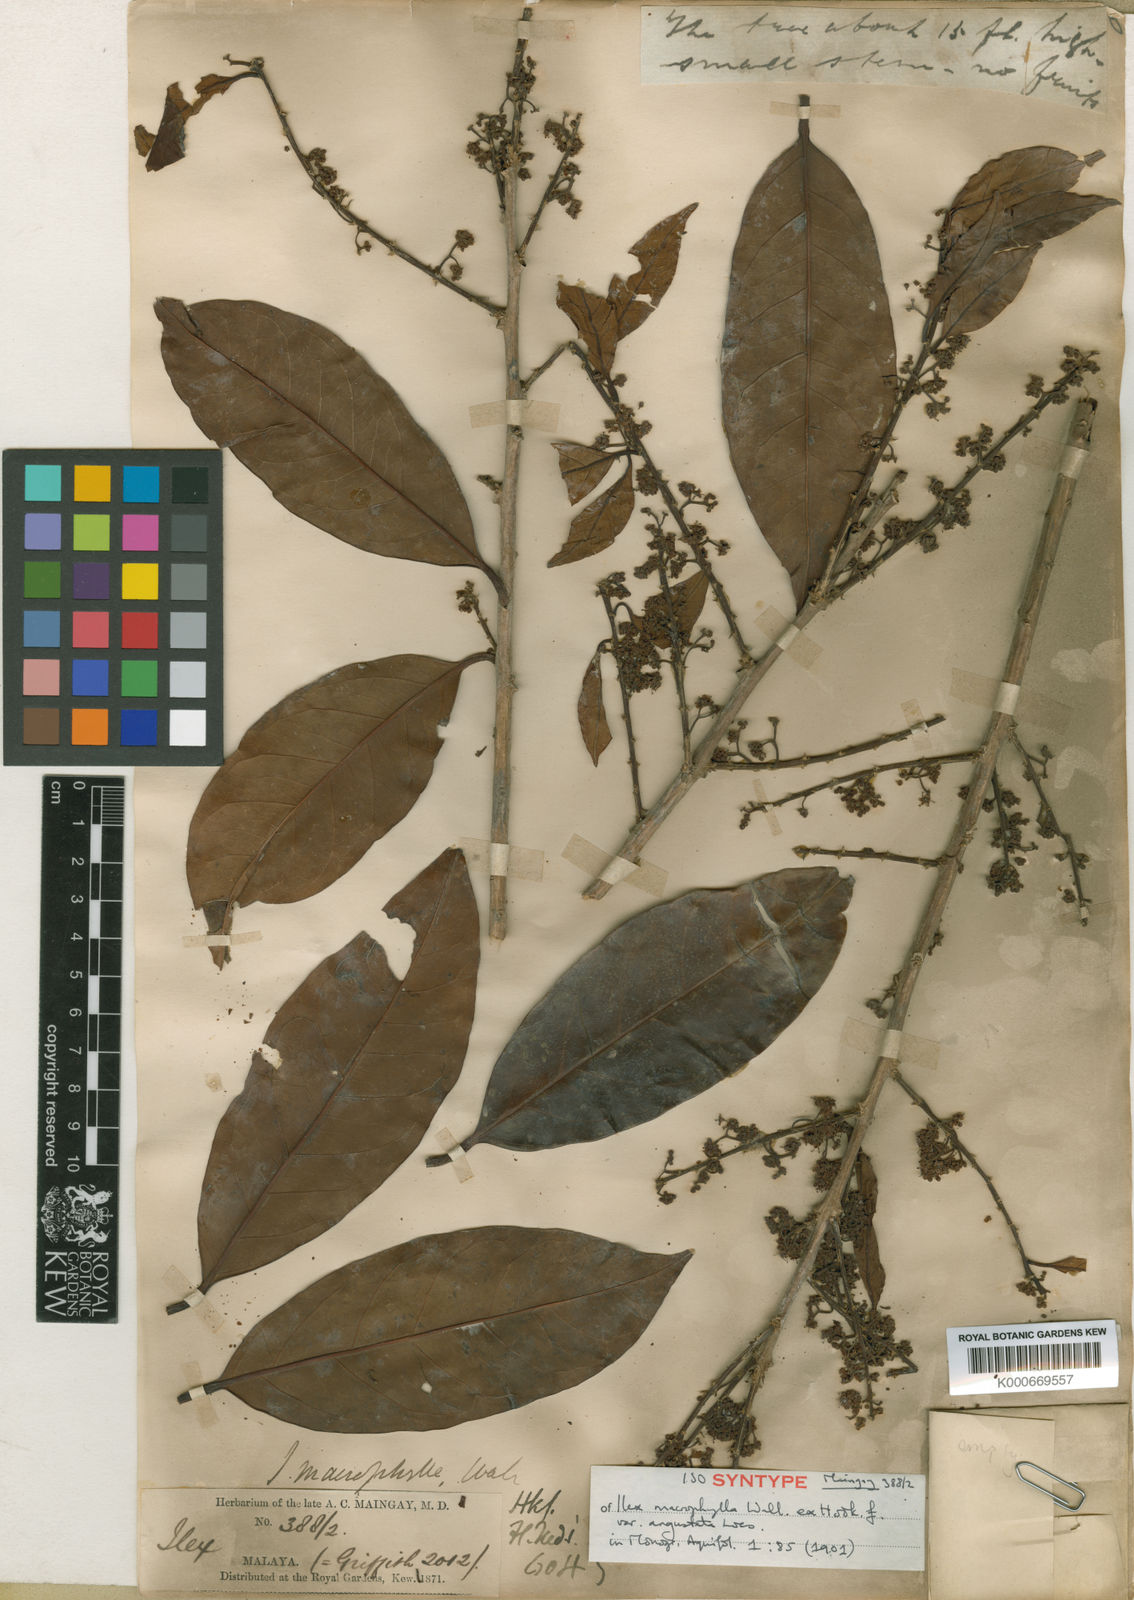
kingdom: Plantae
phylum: Tracheophyta
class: Magnoliopsida
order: Aquifoliales
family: Aquifoliaceae
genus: Ilex
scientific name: Ilex
